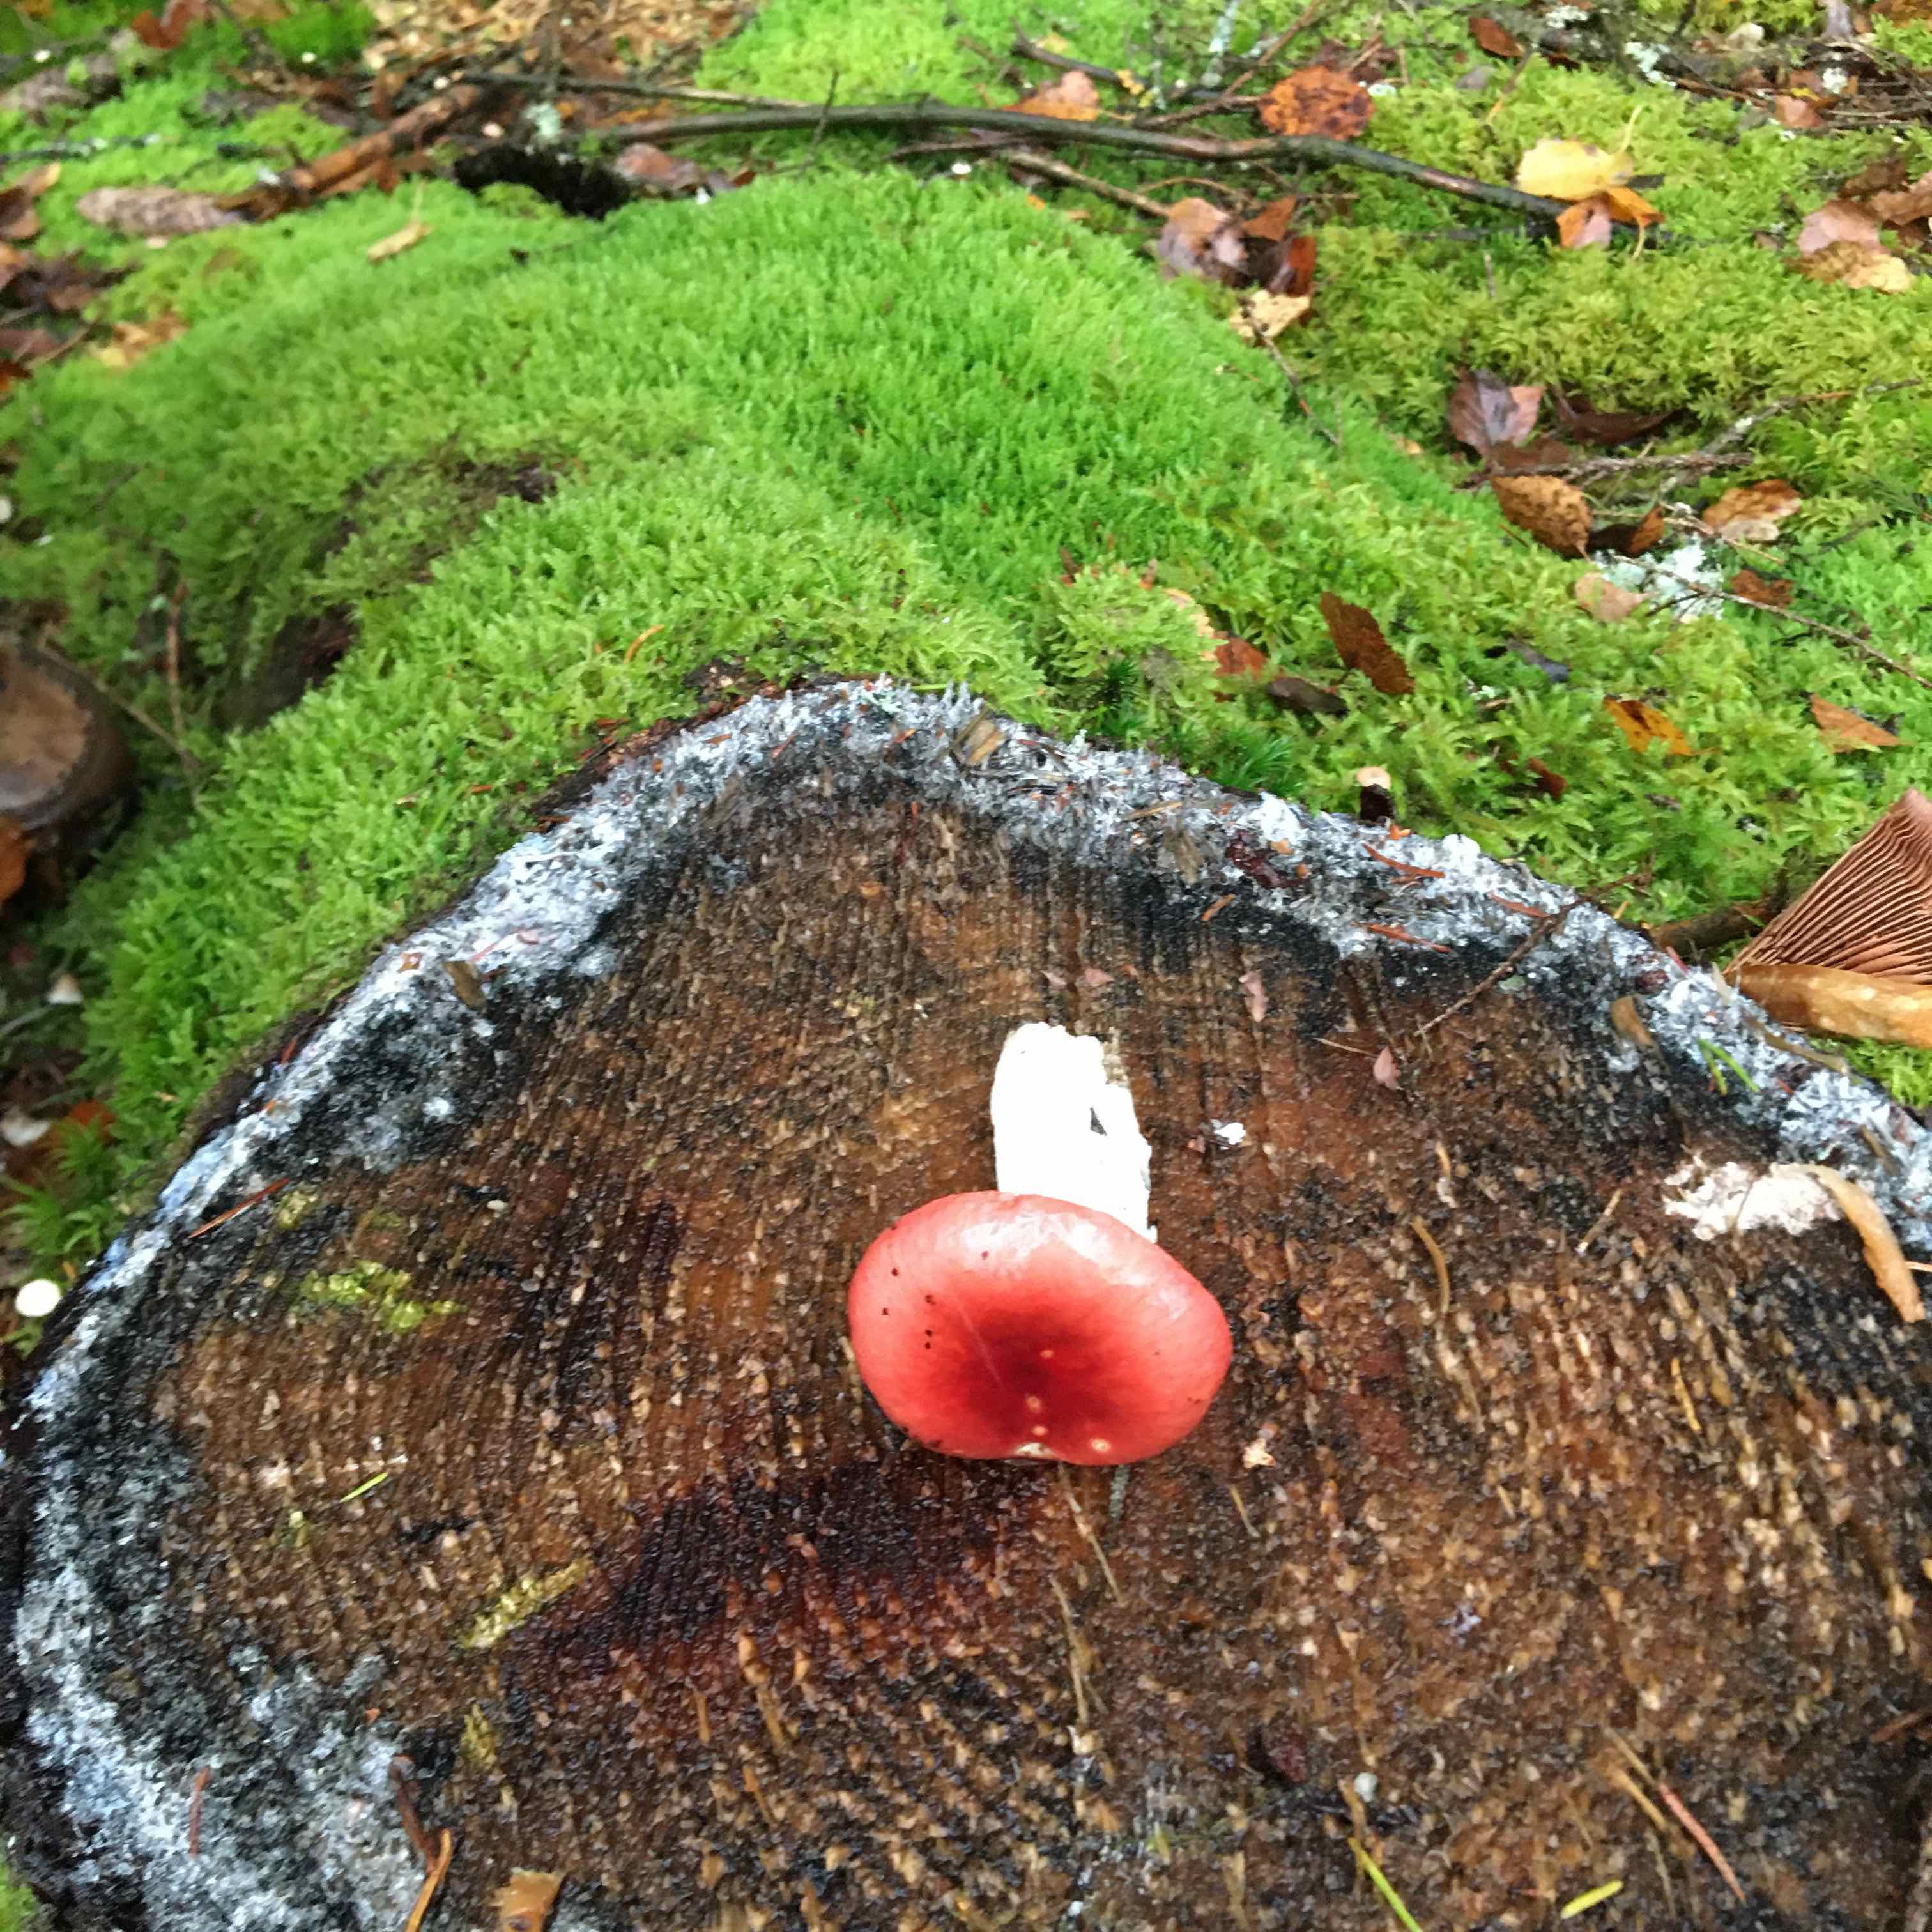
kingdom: Fungi
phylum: Basidiomycota
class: Agaricomycetes
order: Russulales
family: Russulaceae
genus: Russula
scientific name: Russula
